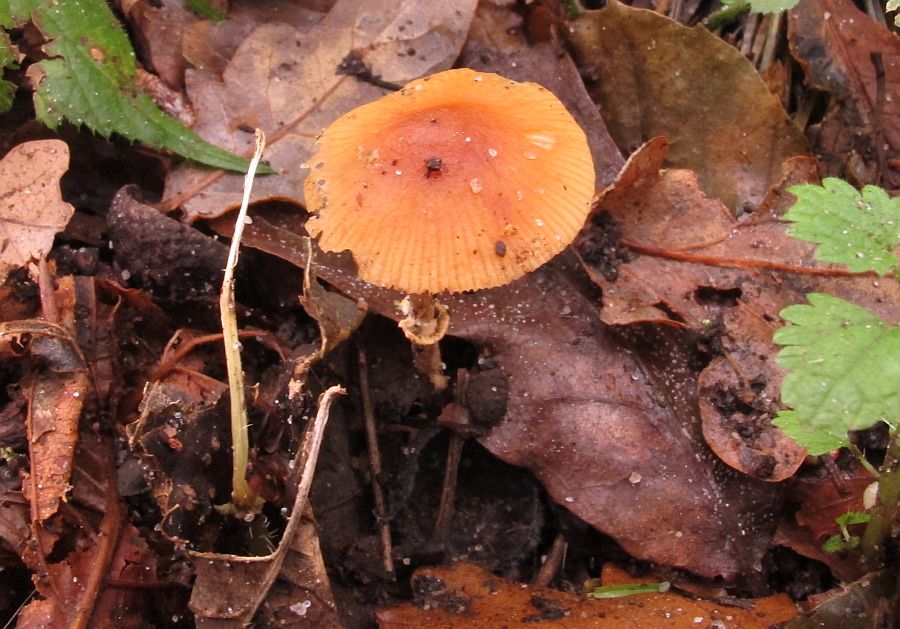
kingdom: Fungi
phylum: Basidiomycota
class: Agaricomycetes
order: Agaricales
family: Bolbitiaceae
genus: Conocybe
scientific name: Conocybe arrhenii
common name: ring-dansehat
